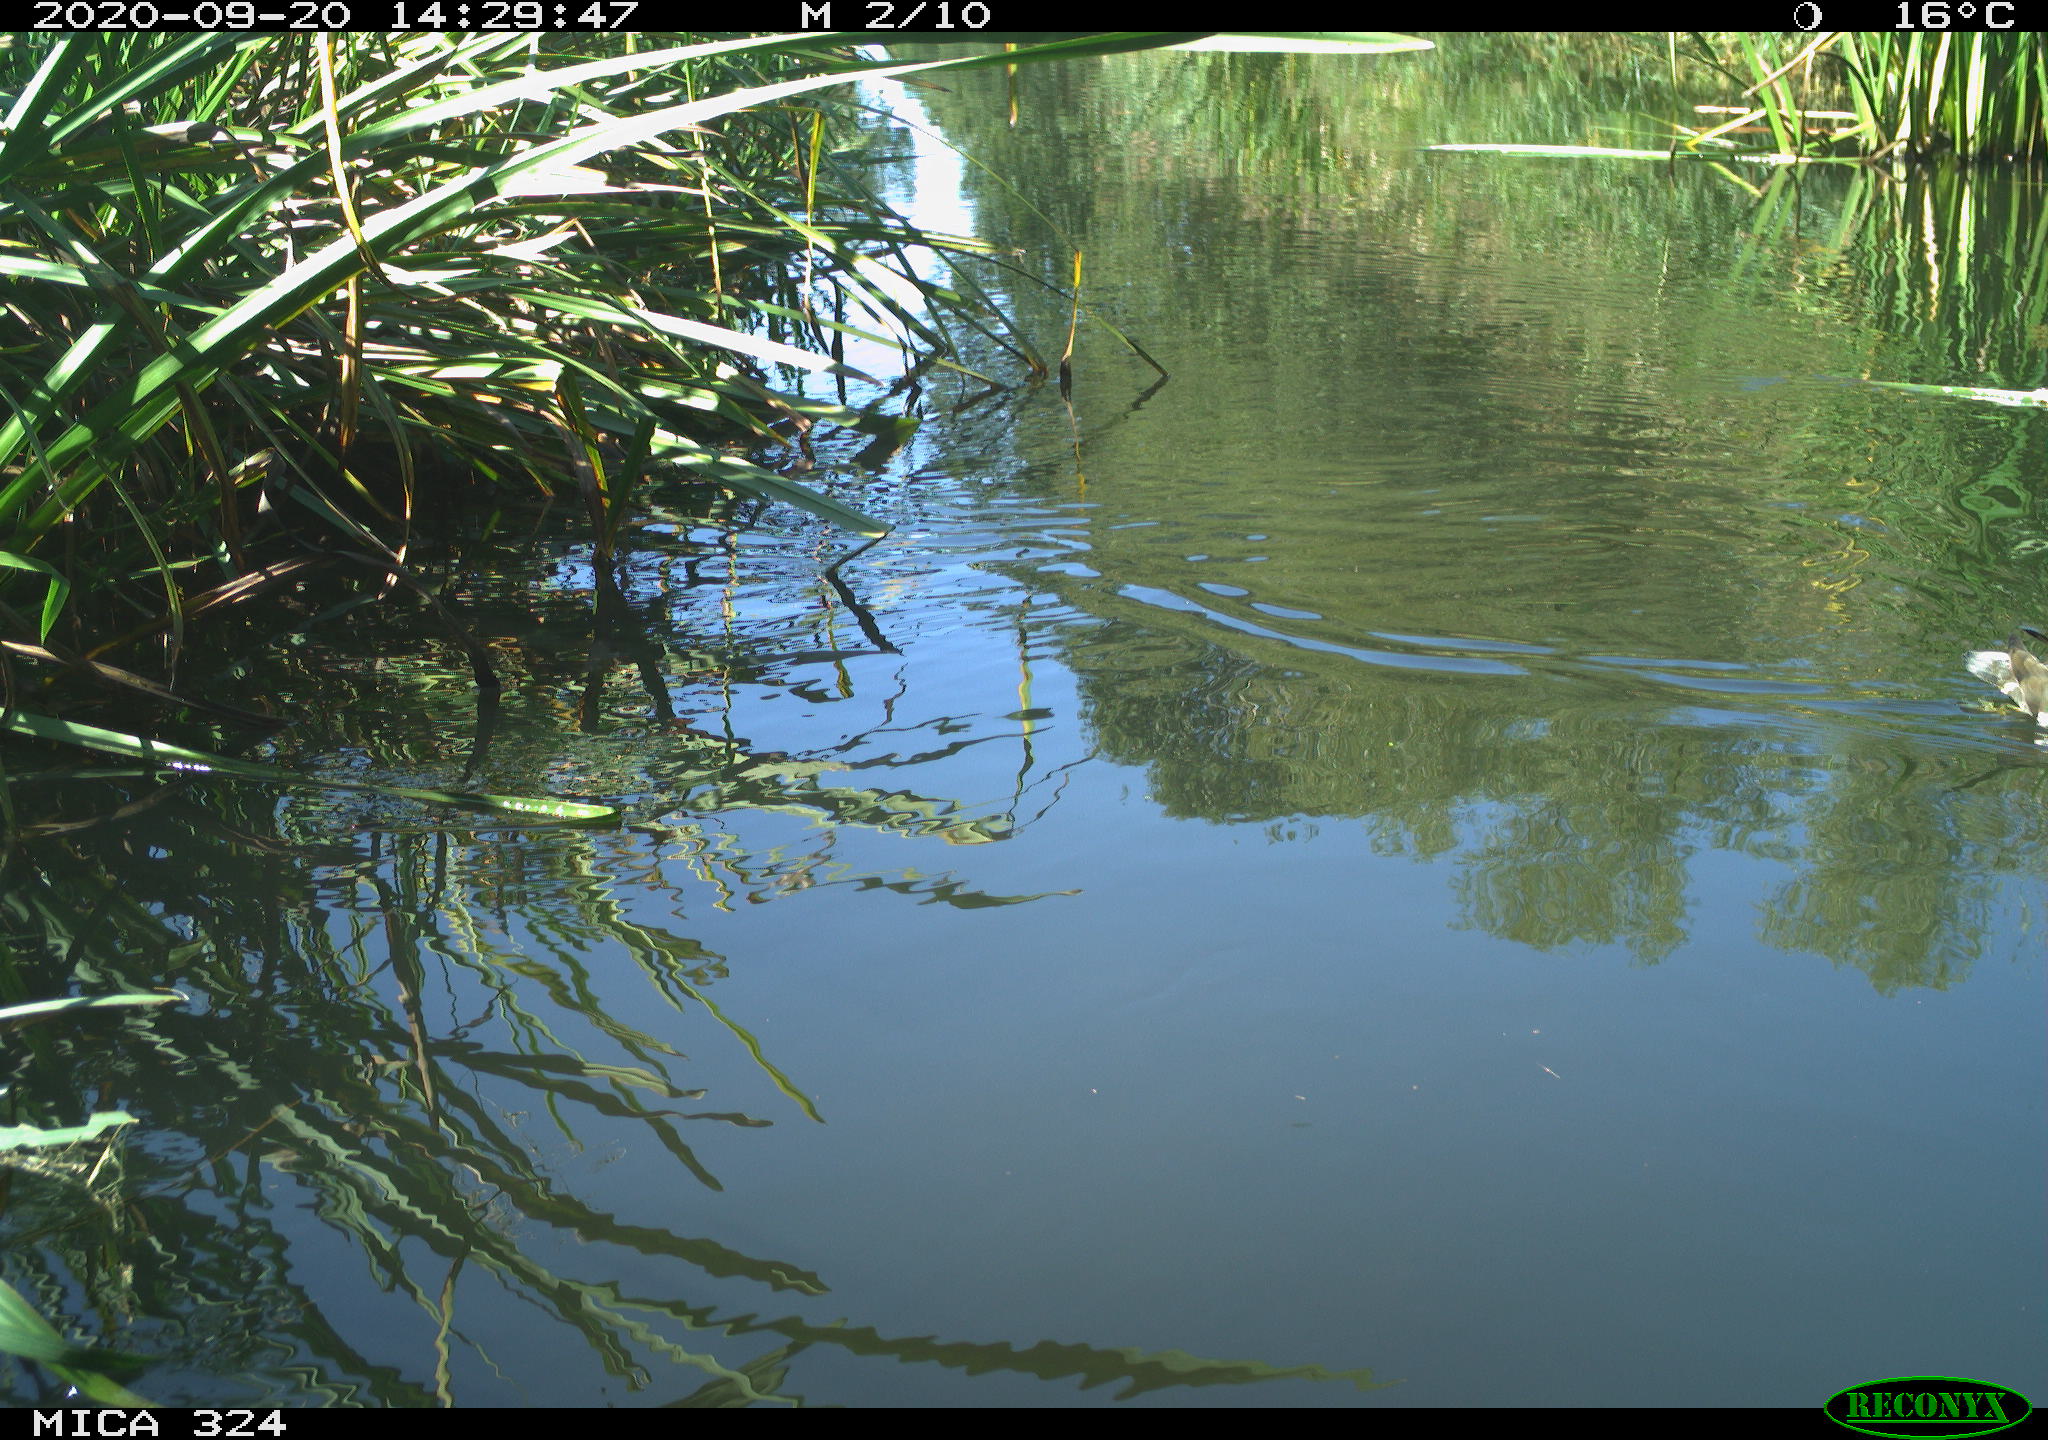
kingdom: Animalia
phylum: Chordata
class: Mammalia
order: Rodentia
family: Cricetidae
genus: Ondatra
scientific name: Ondatra zibethicus
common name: Muskrat
